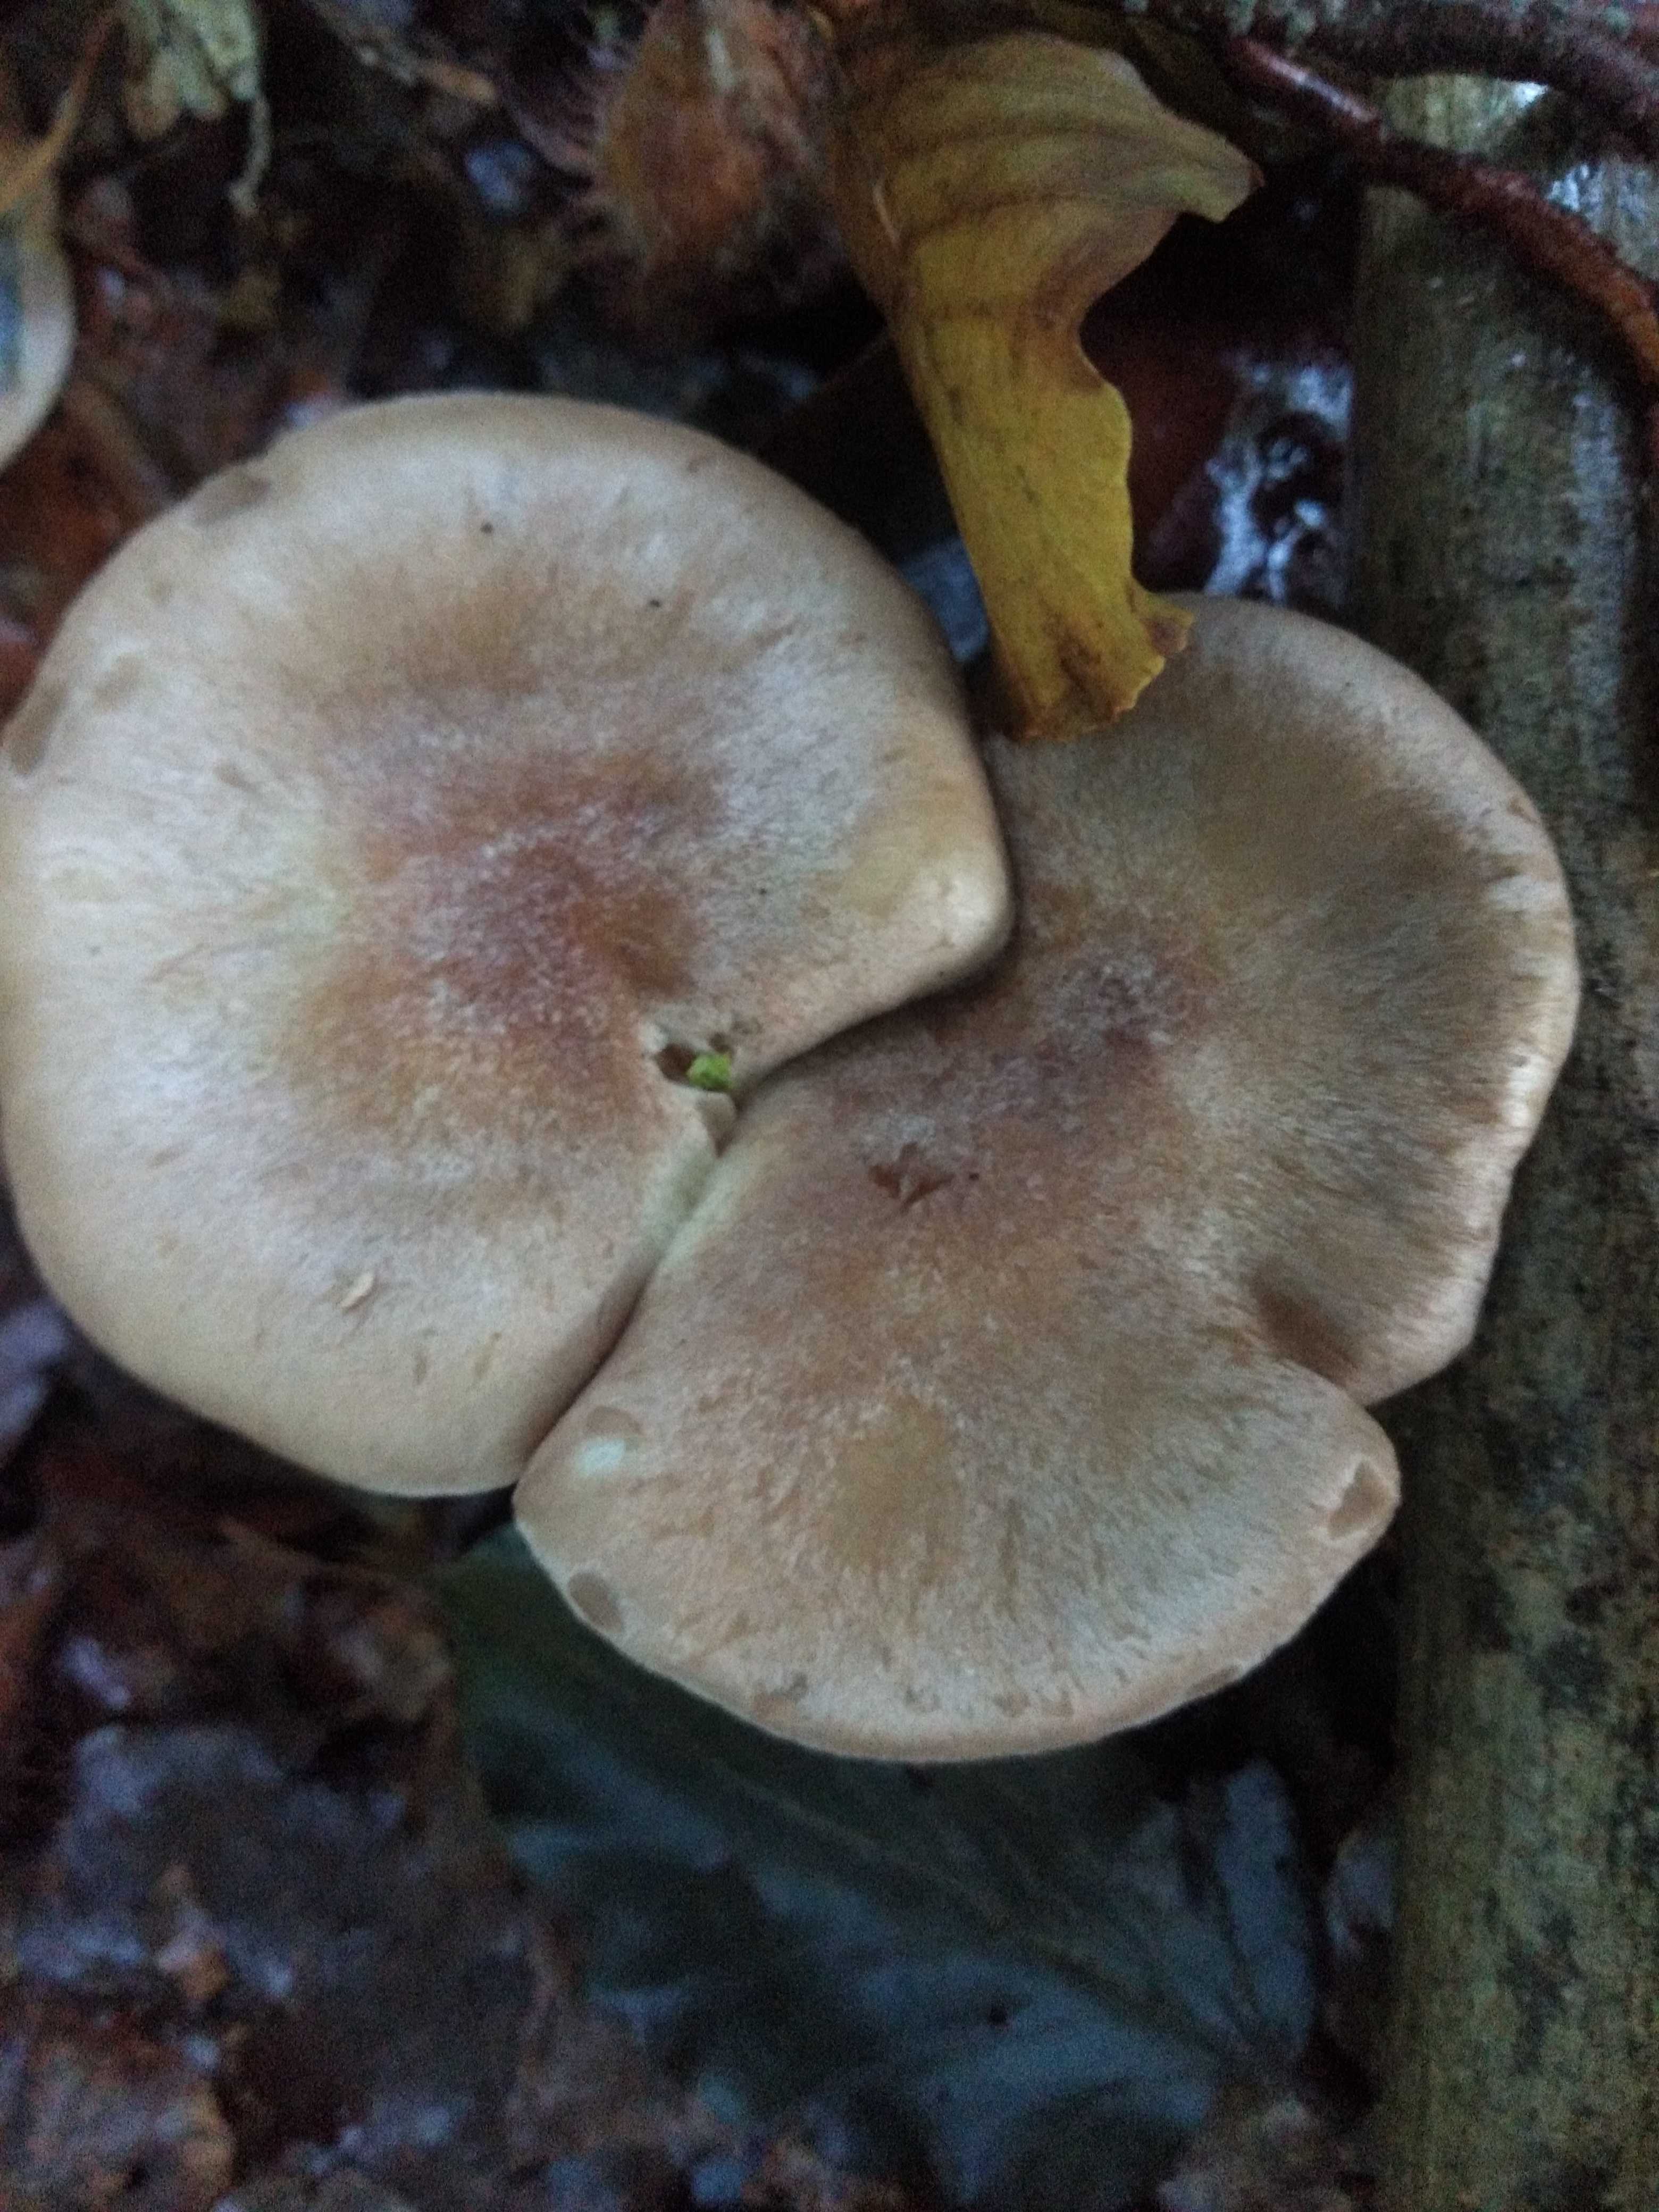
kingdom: Fungi
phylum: Basidiomycota
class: Agaricomycetes
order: Agaricales
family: Omphalotaceae
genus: Collybiopsis
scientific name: Collybiopsis peronata
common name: bestøvlet fladhat
